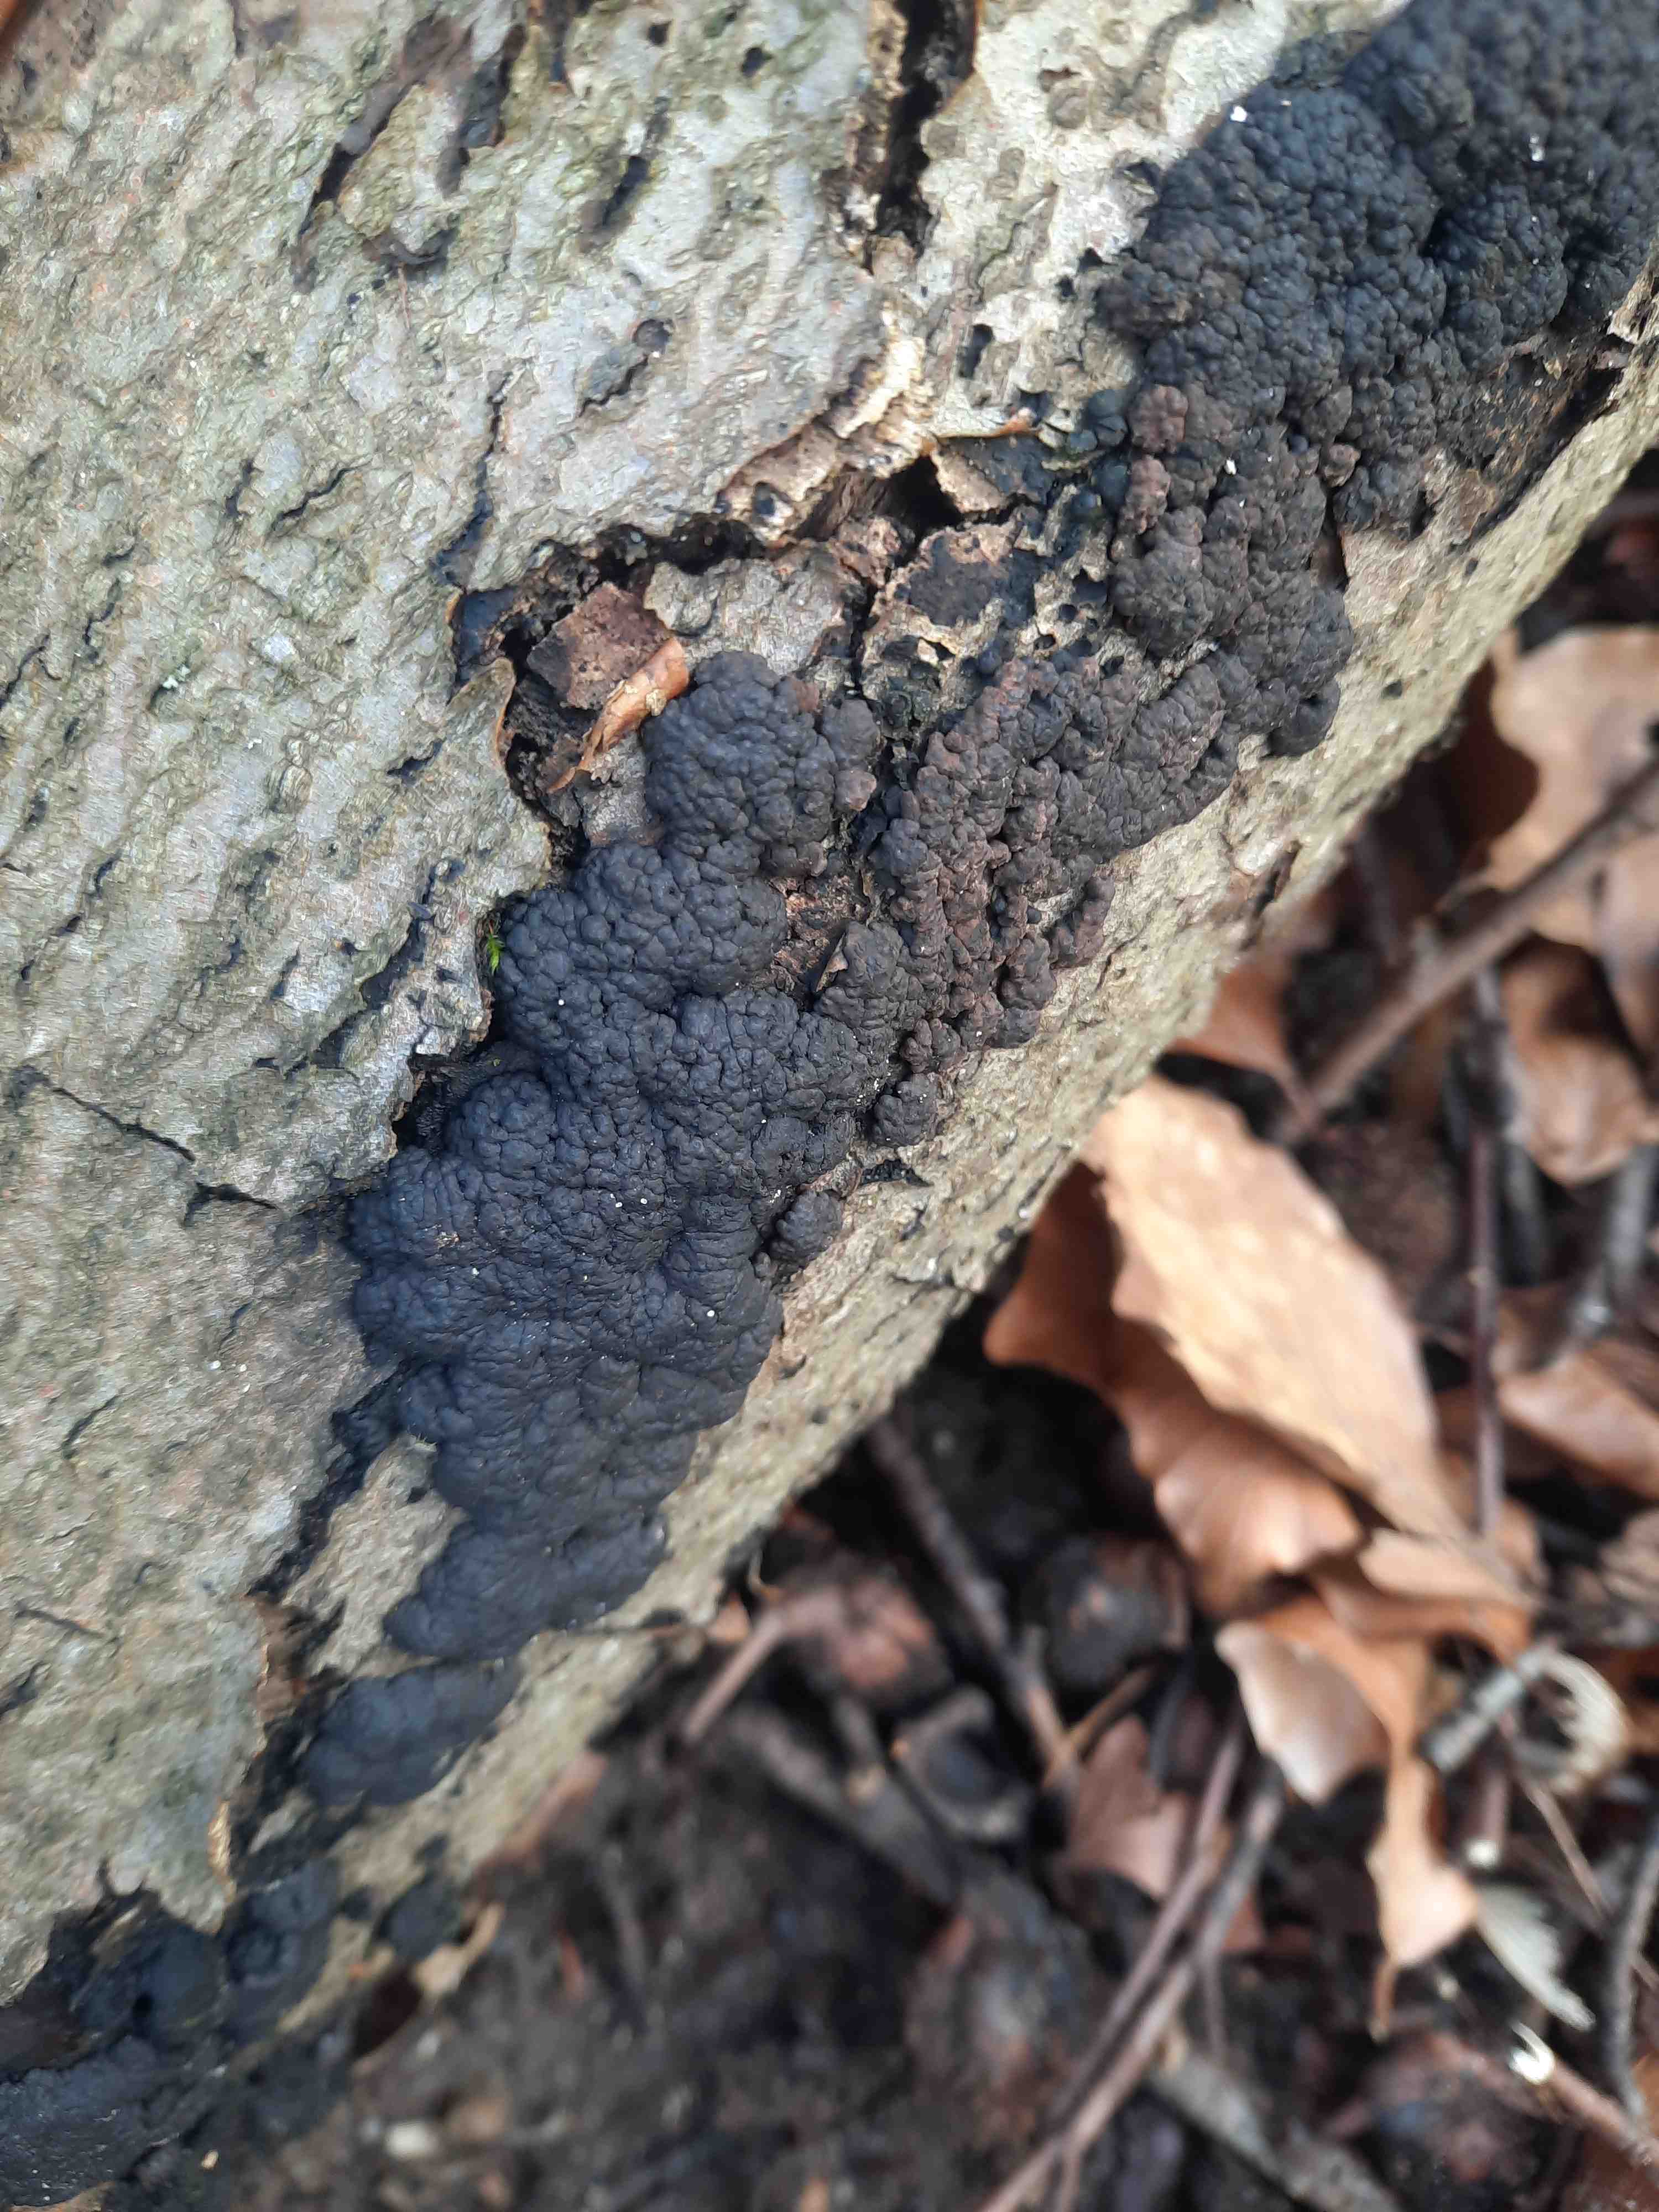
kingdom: Fungi
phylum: Ascomycota
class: Sordariomycetes
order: Xylariales
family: Hypoxylaceae
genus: Jackrogersella
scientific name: Jackrogersella cohaerens
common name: sammenflydende kulbær
